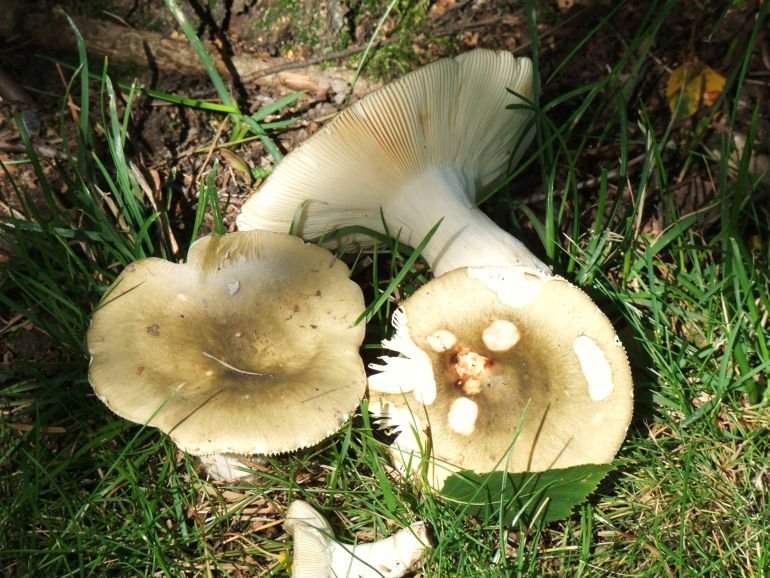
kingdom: Fungi
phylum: Basidiomycota
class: Agaricomycetes
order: Russulales
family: Russulaceae
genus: Russula
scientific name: Russula aeruginea
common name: græsgrøn skørhat
